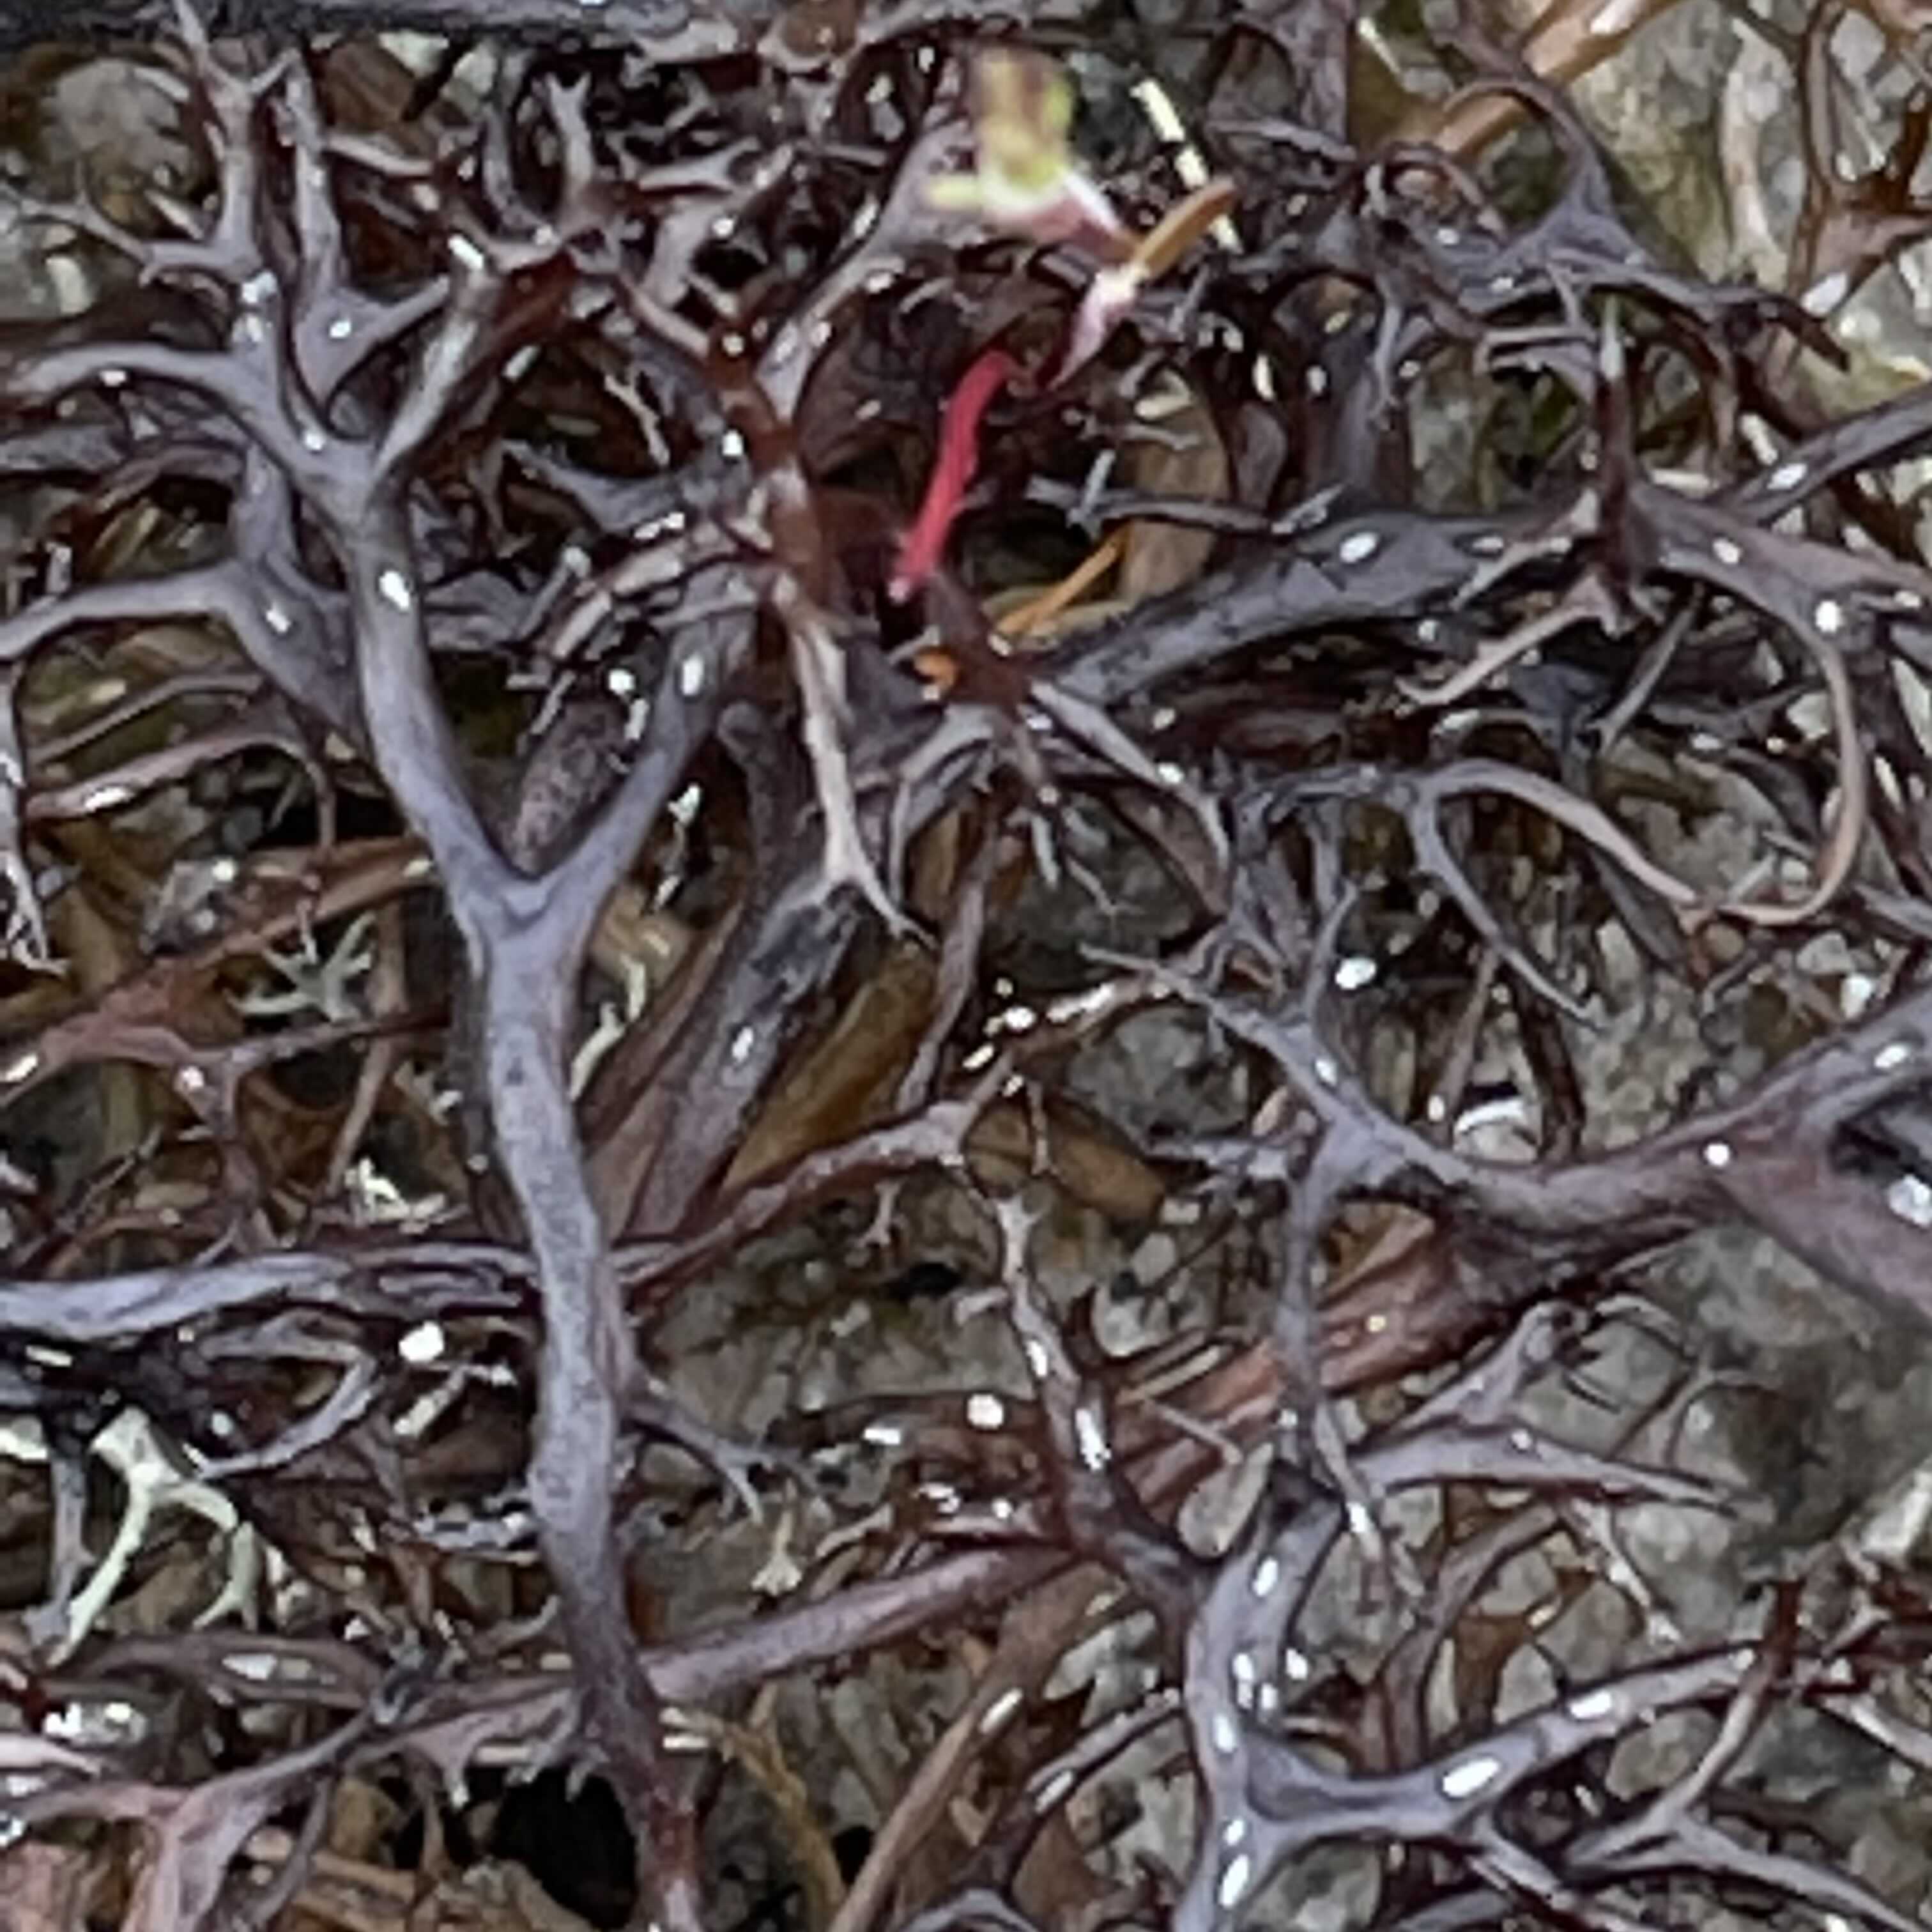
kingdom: Fungi
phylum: Ascomycota
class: Lecanoromycetes
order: Lecanorales
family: Parmeliaceae
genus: Cetraria
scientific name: Cetraria aculeata
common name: grubet tjørnelav
